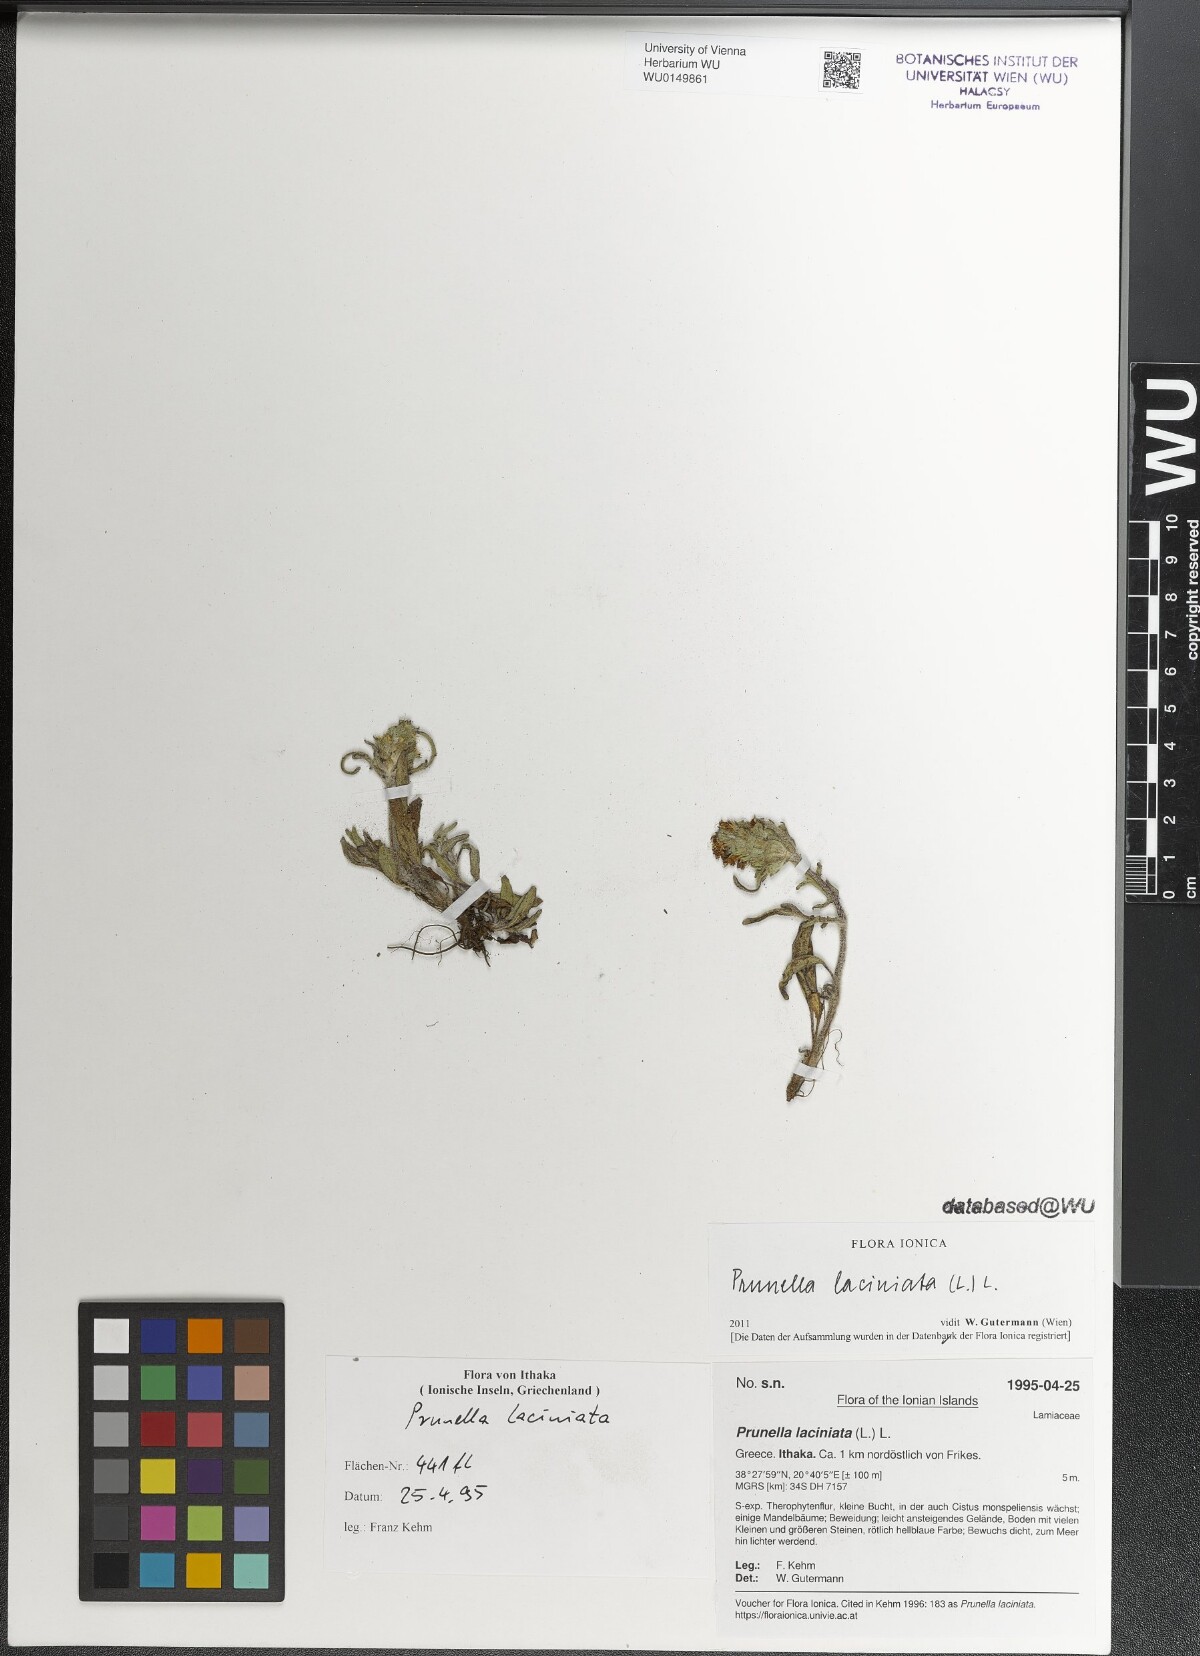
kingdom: Plantae
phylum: Tracheophyta
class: Magnoliopsida
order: Lamiales
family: Lamiaceae
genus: Prunella
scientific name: Prunella laciniata
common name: Cut-leaved selfheal
